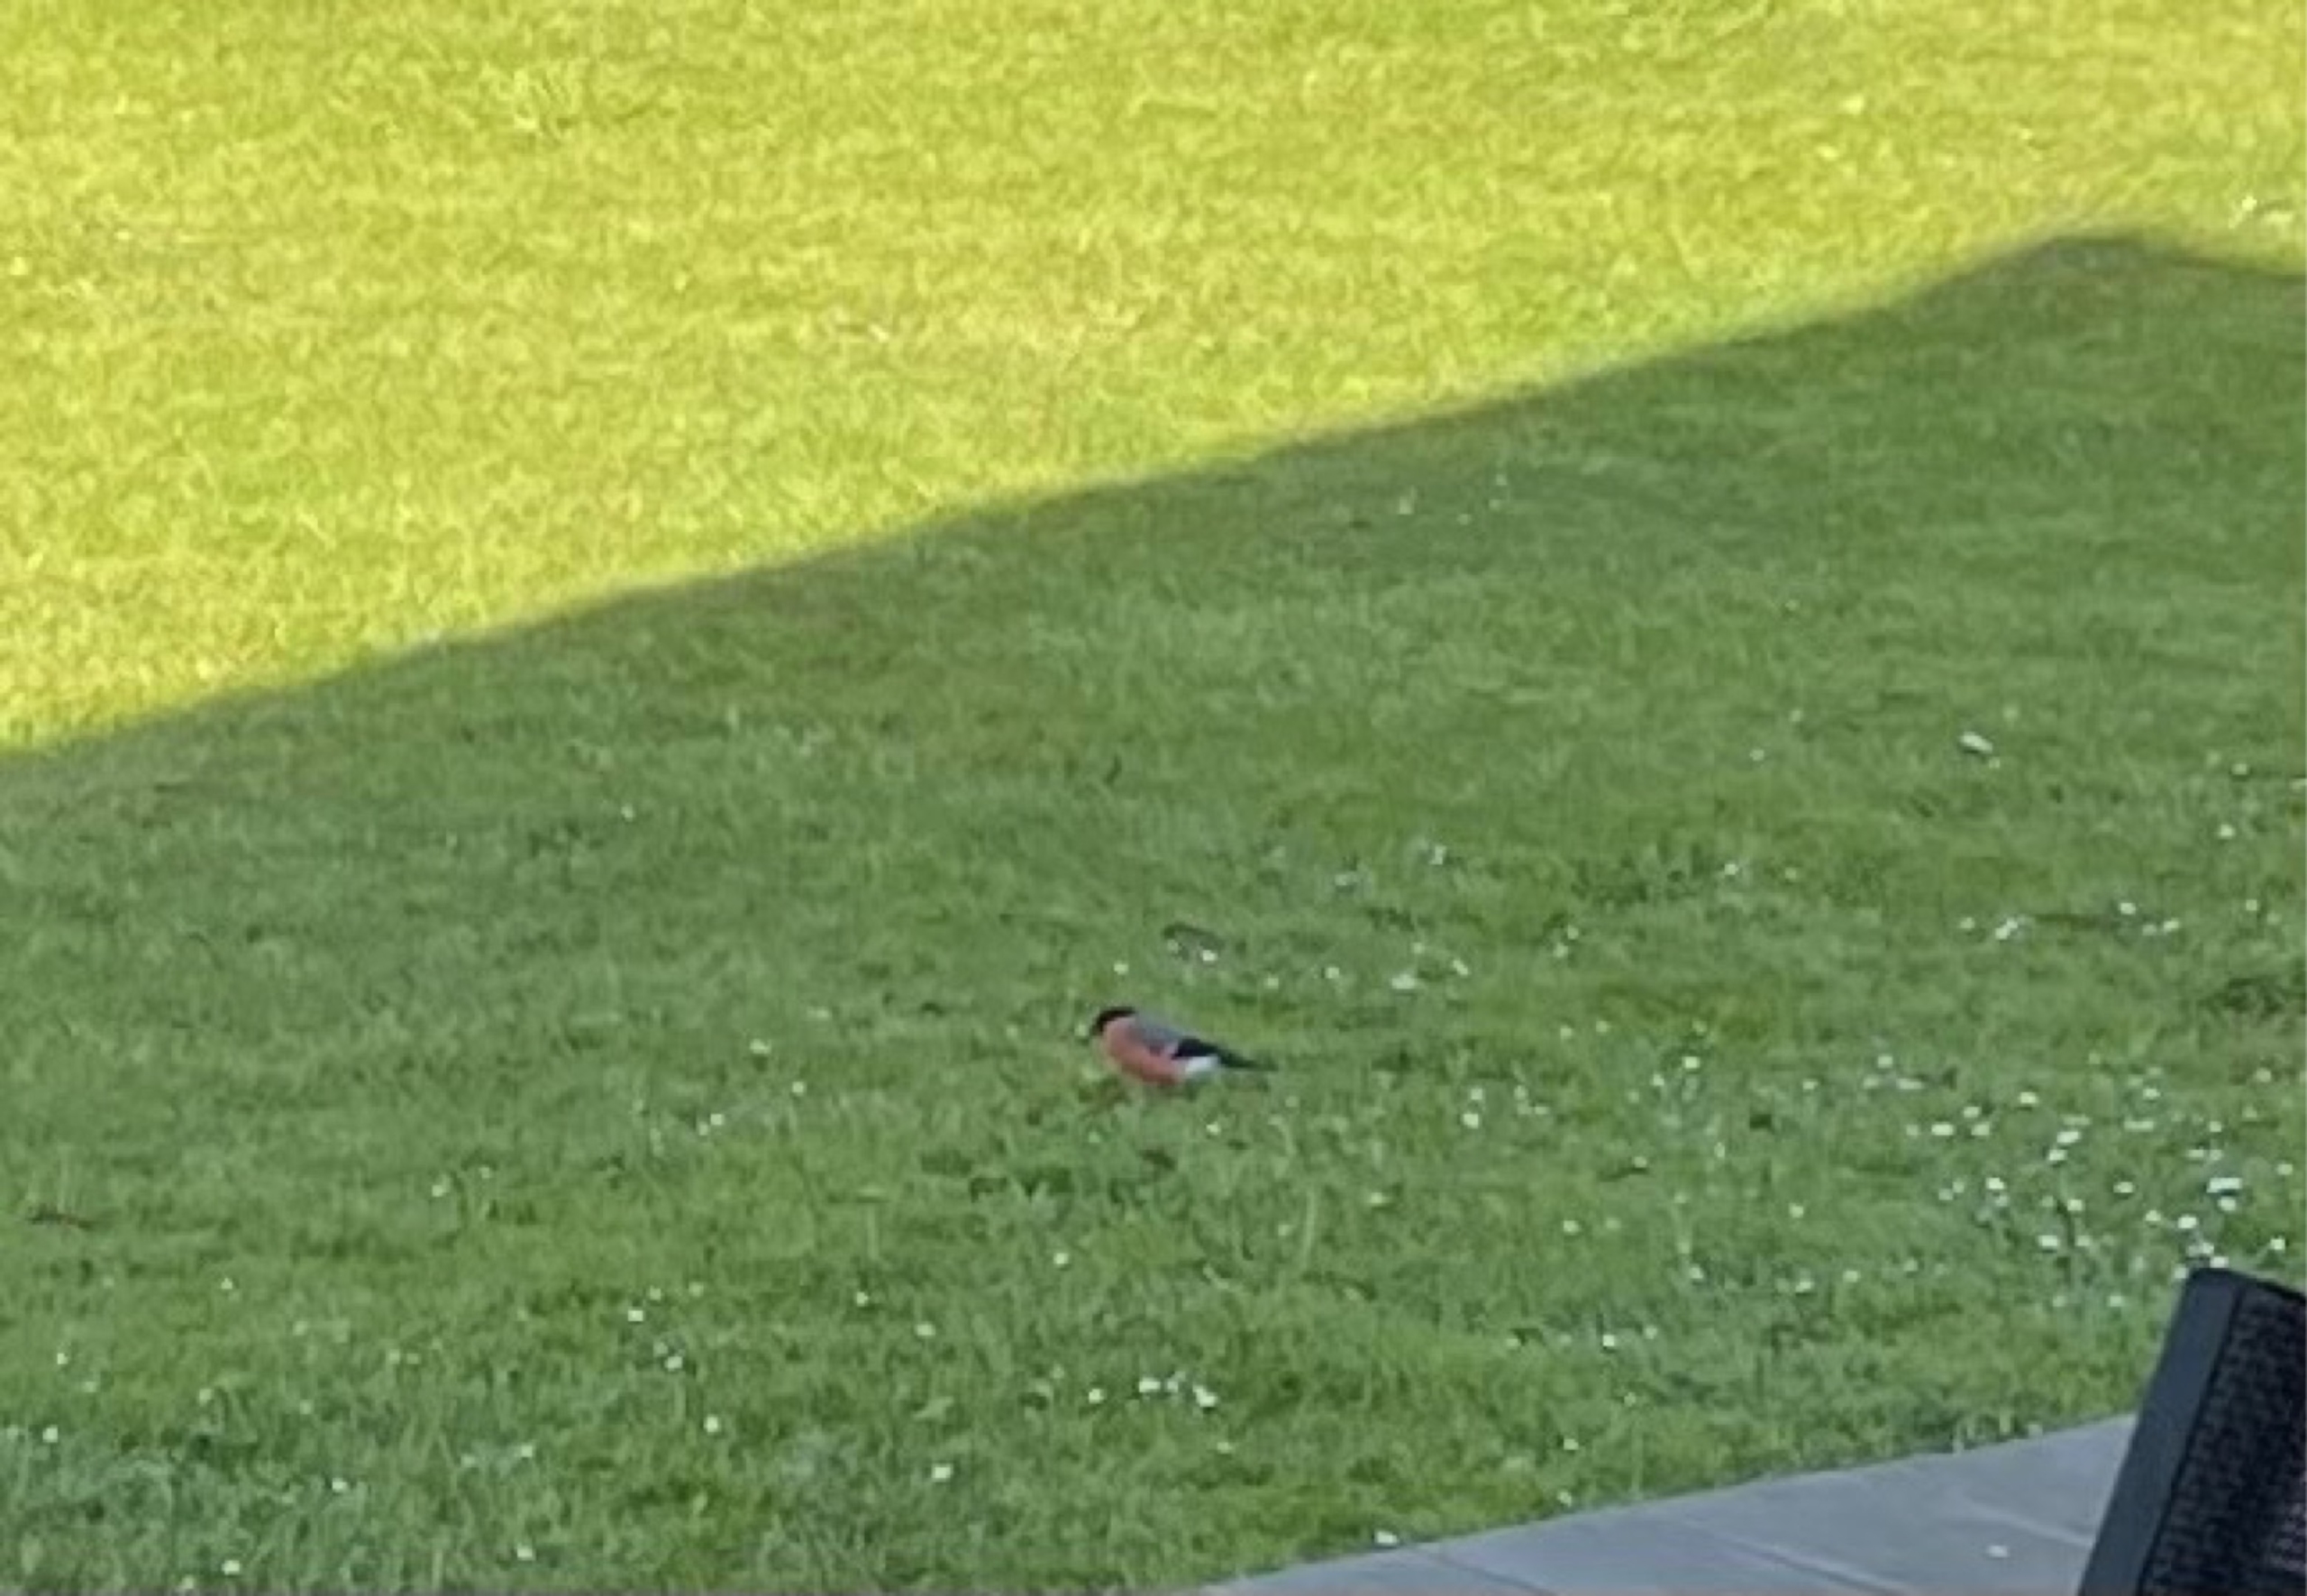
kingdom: Animalia
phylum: Chordata
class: Aves
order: Passeriformes
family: Fringillidae
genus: Pyrrhula
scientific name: Pyrrhula pyrrhula
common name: Dompap
